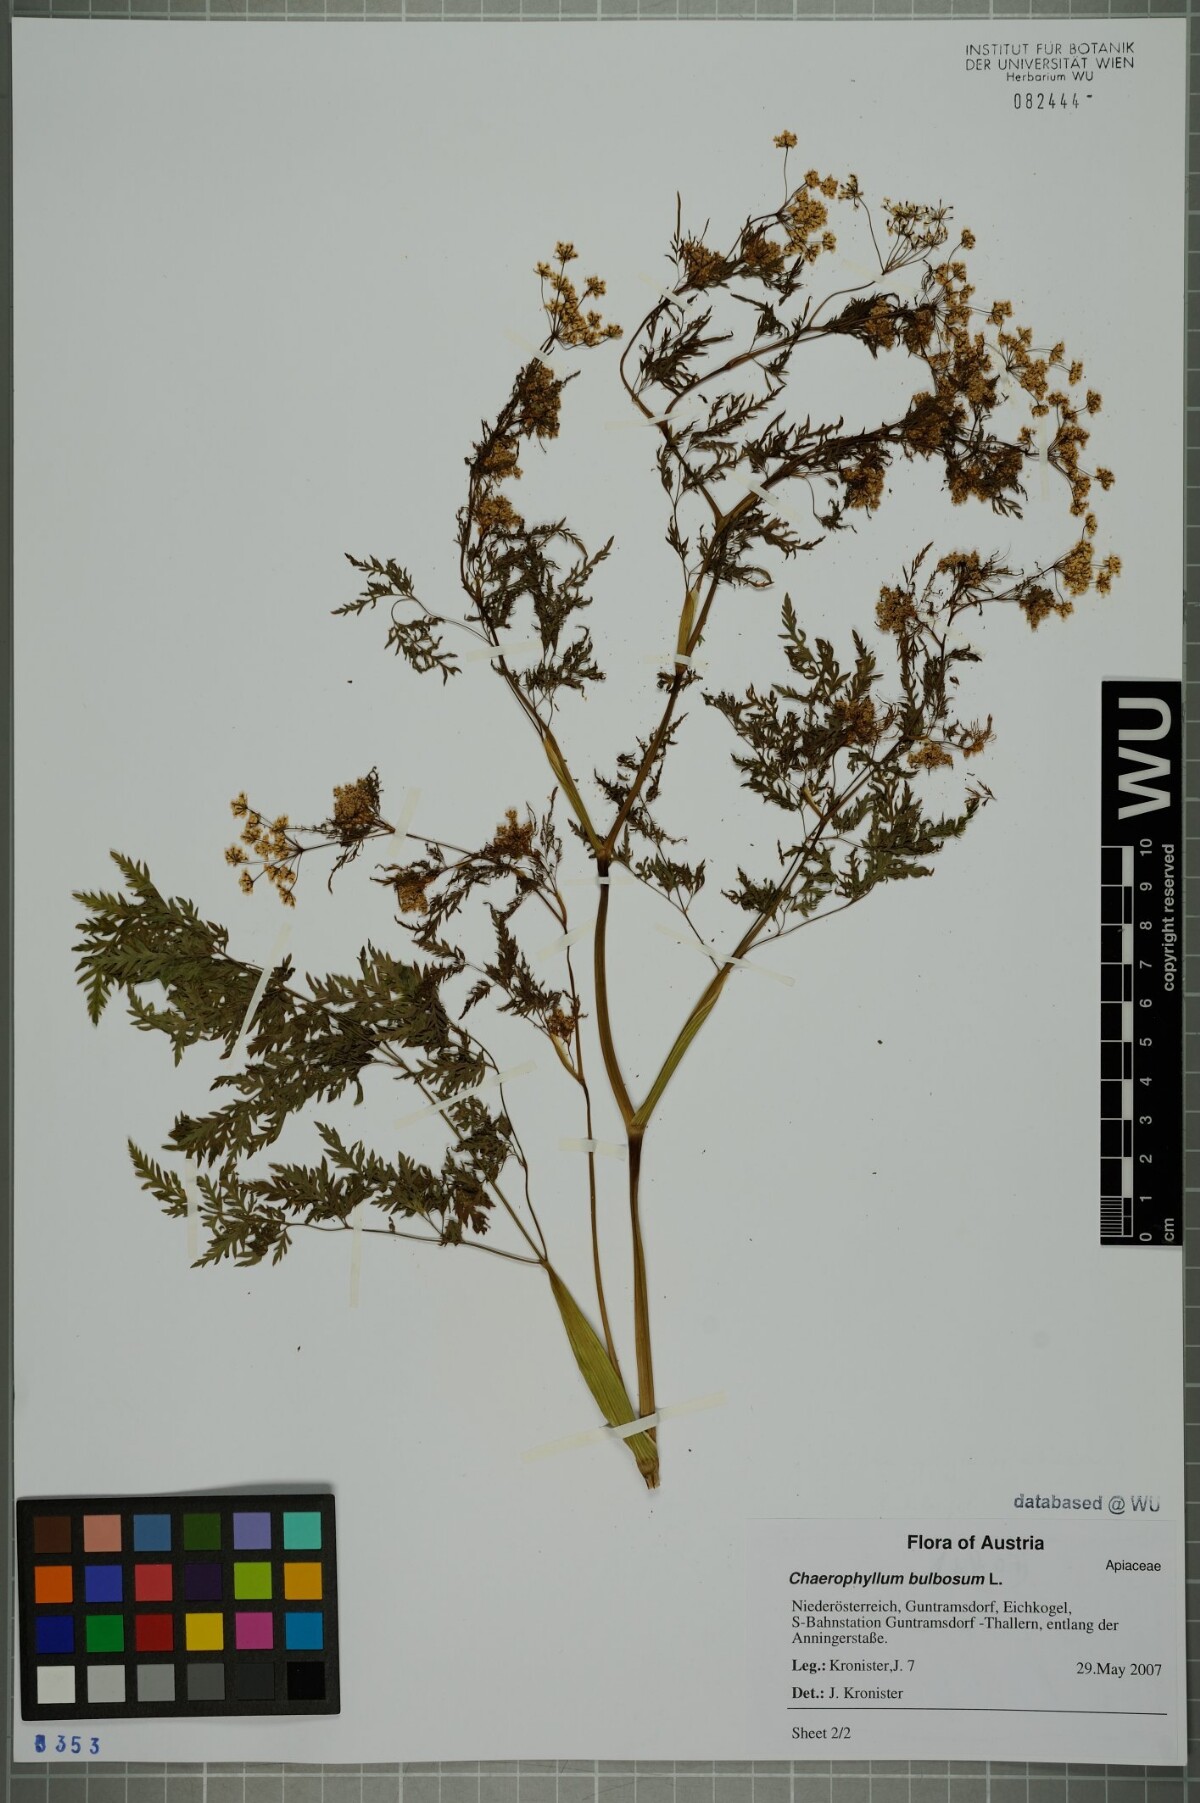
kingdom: Plantae
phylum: Tracheophyta
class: Magnoliopsida
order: Apiales
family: Apiaceae
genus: Chaerophyllum
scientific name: Chaerophyllum bulbosum
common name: Bulbous chervil
